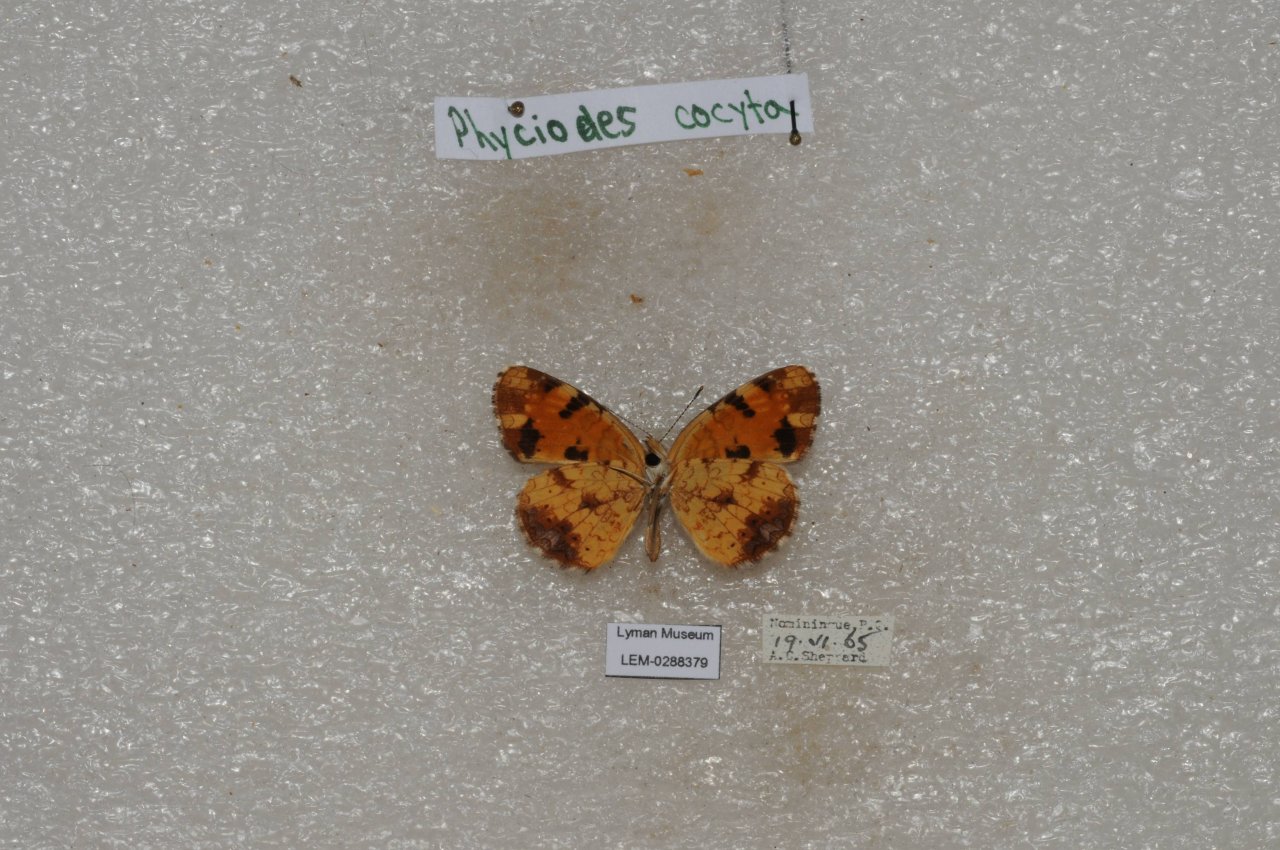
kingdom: Animalia
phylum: Arthropoda
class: Insecta
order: Lepidoptera
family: Nymphalidae
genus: Phyciodes
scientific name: Phyciodes tharos
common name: Northern Crescent
